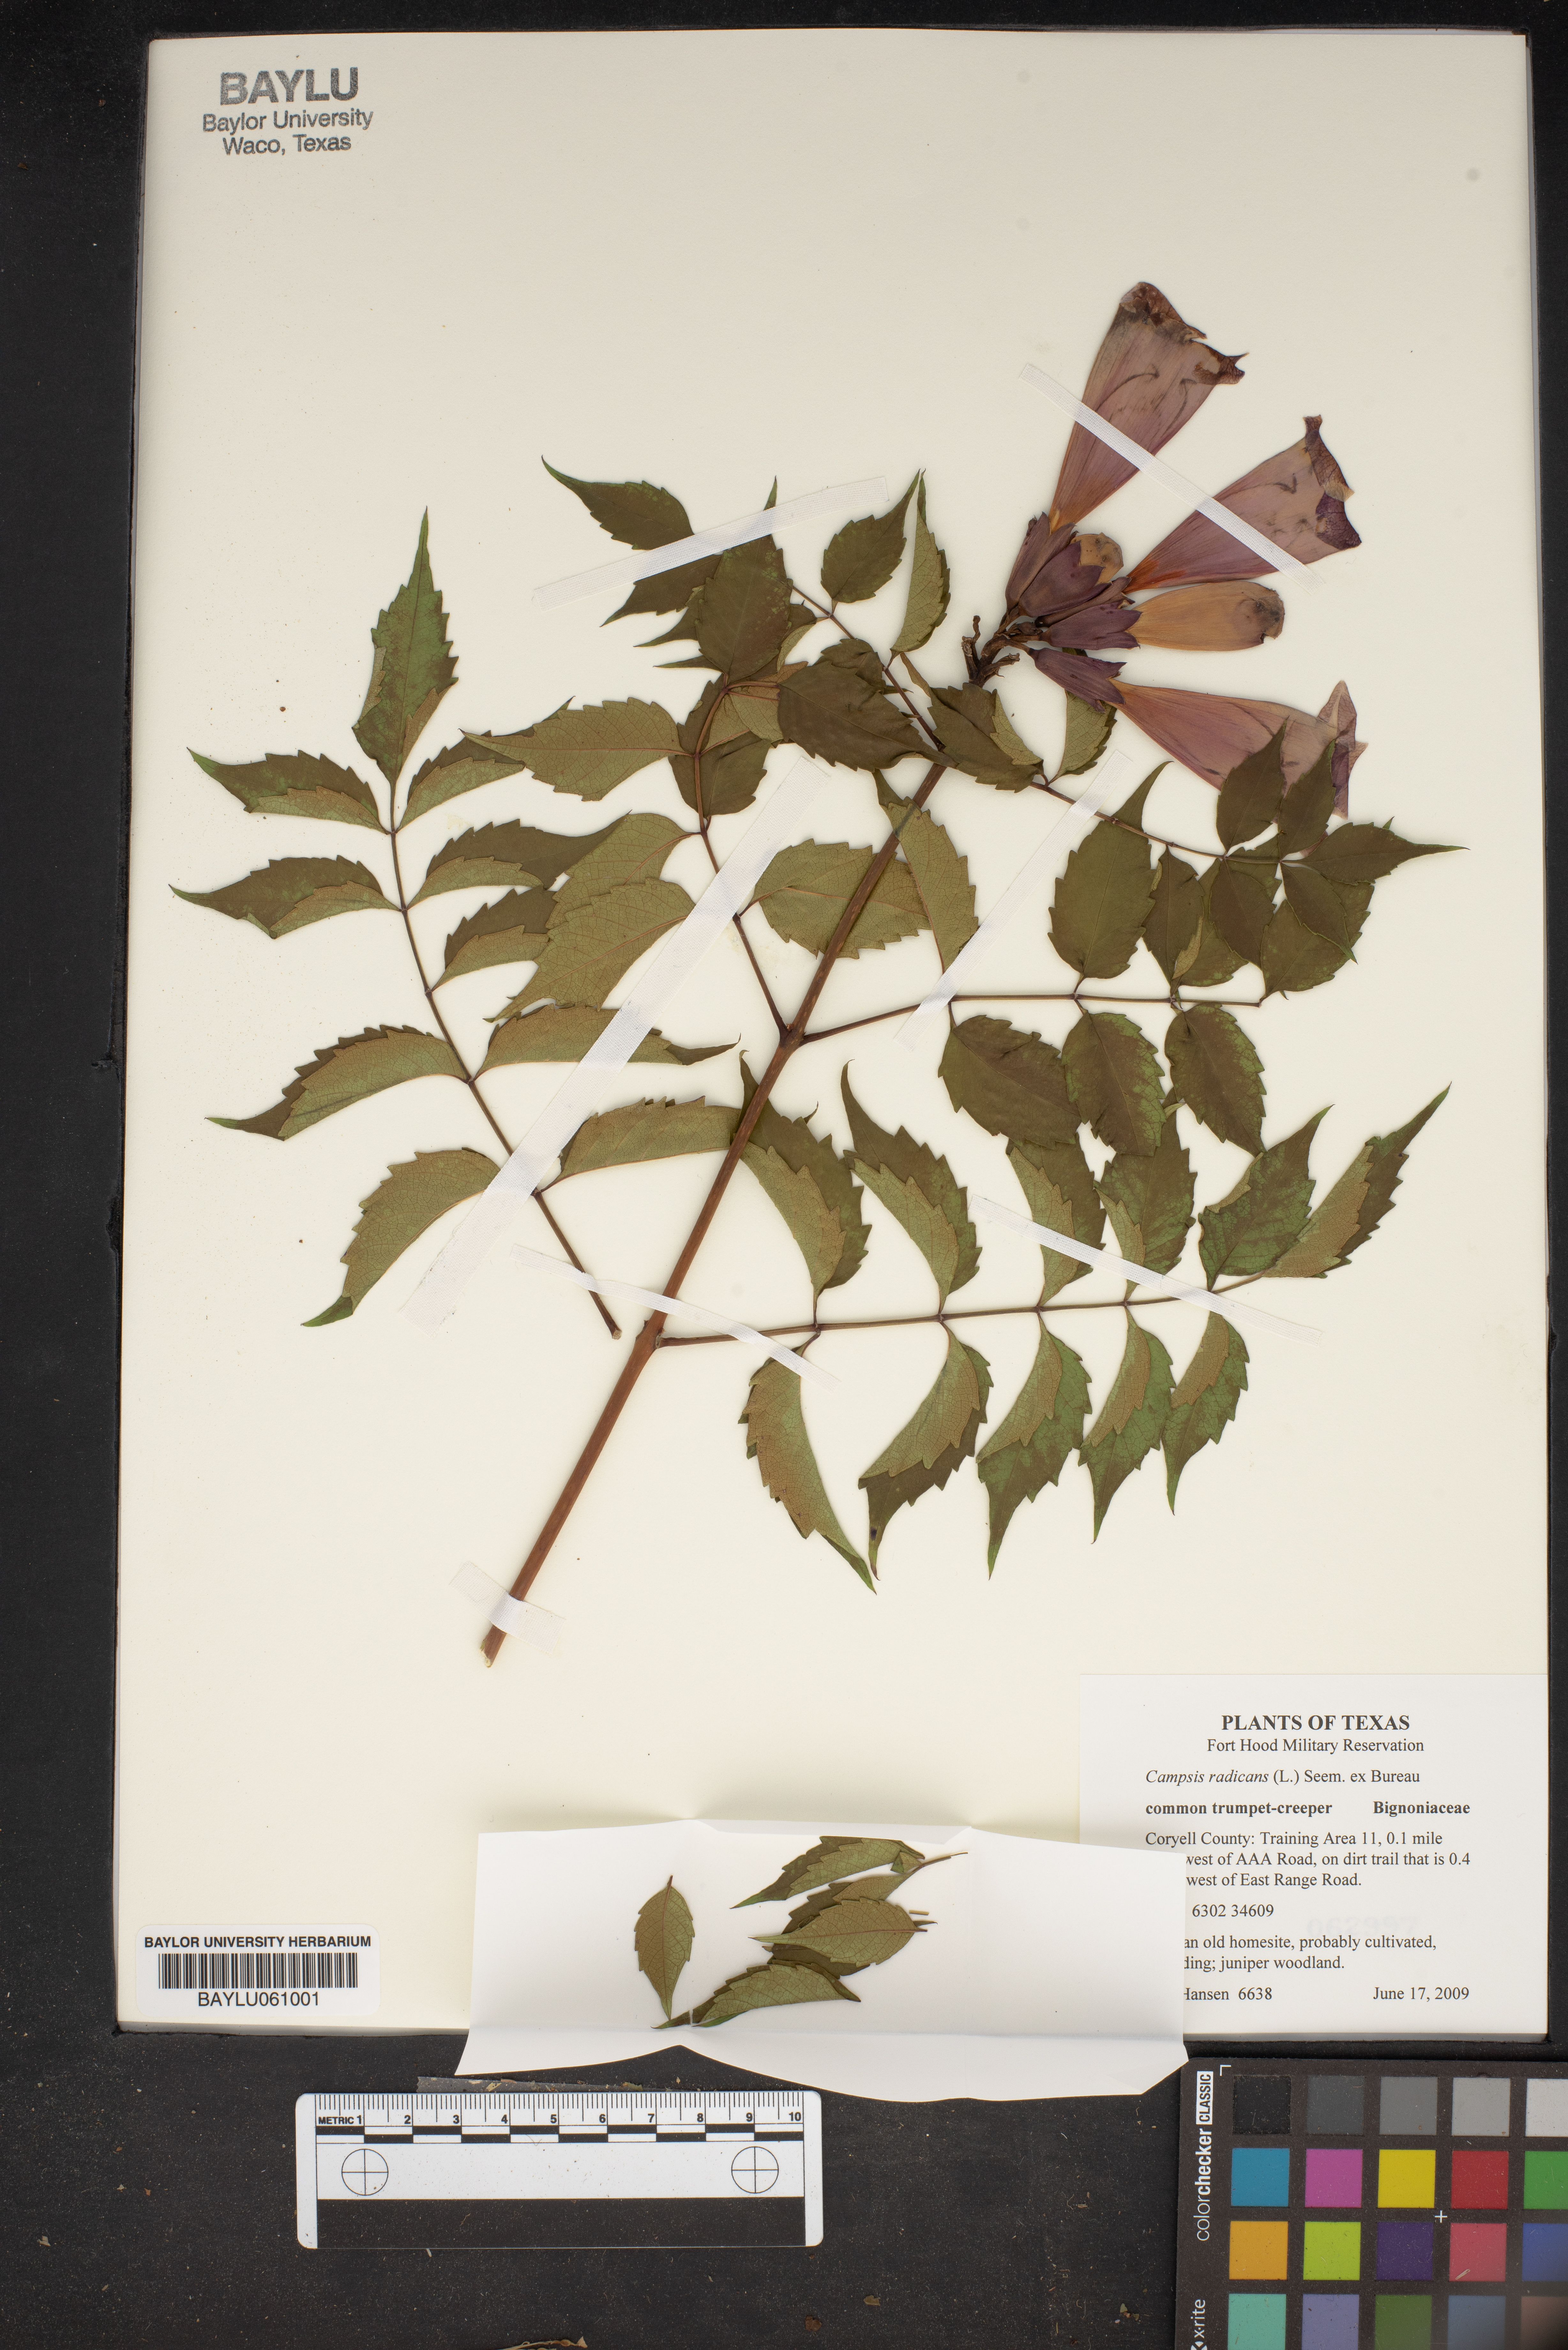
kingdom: Plantae
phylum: Tracheophyta
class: Magnoliopsida
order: Lamiales
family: Bignoniaceae
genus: Campsis
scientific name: Campsis radicans
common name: Trumpet-creeper
